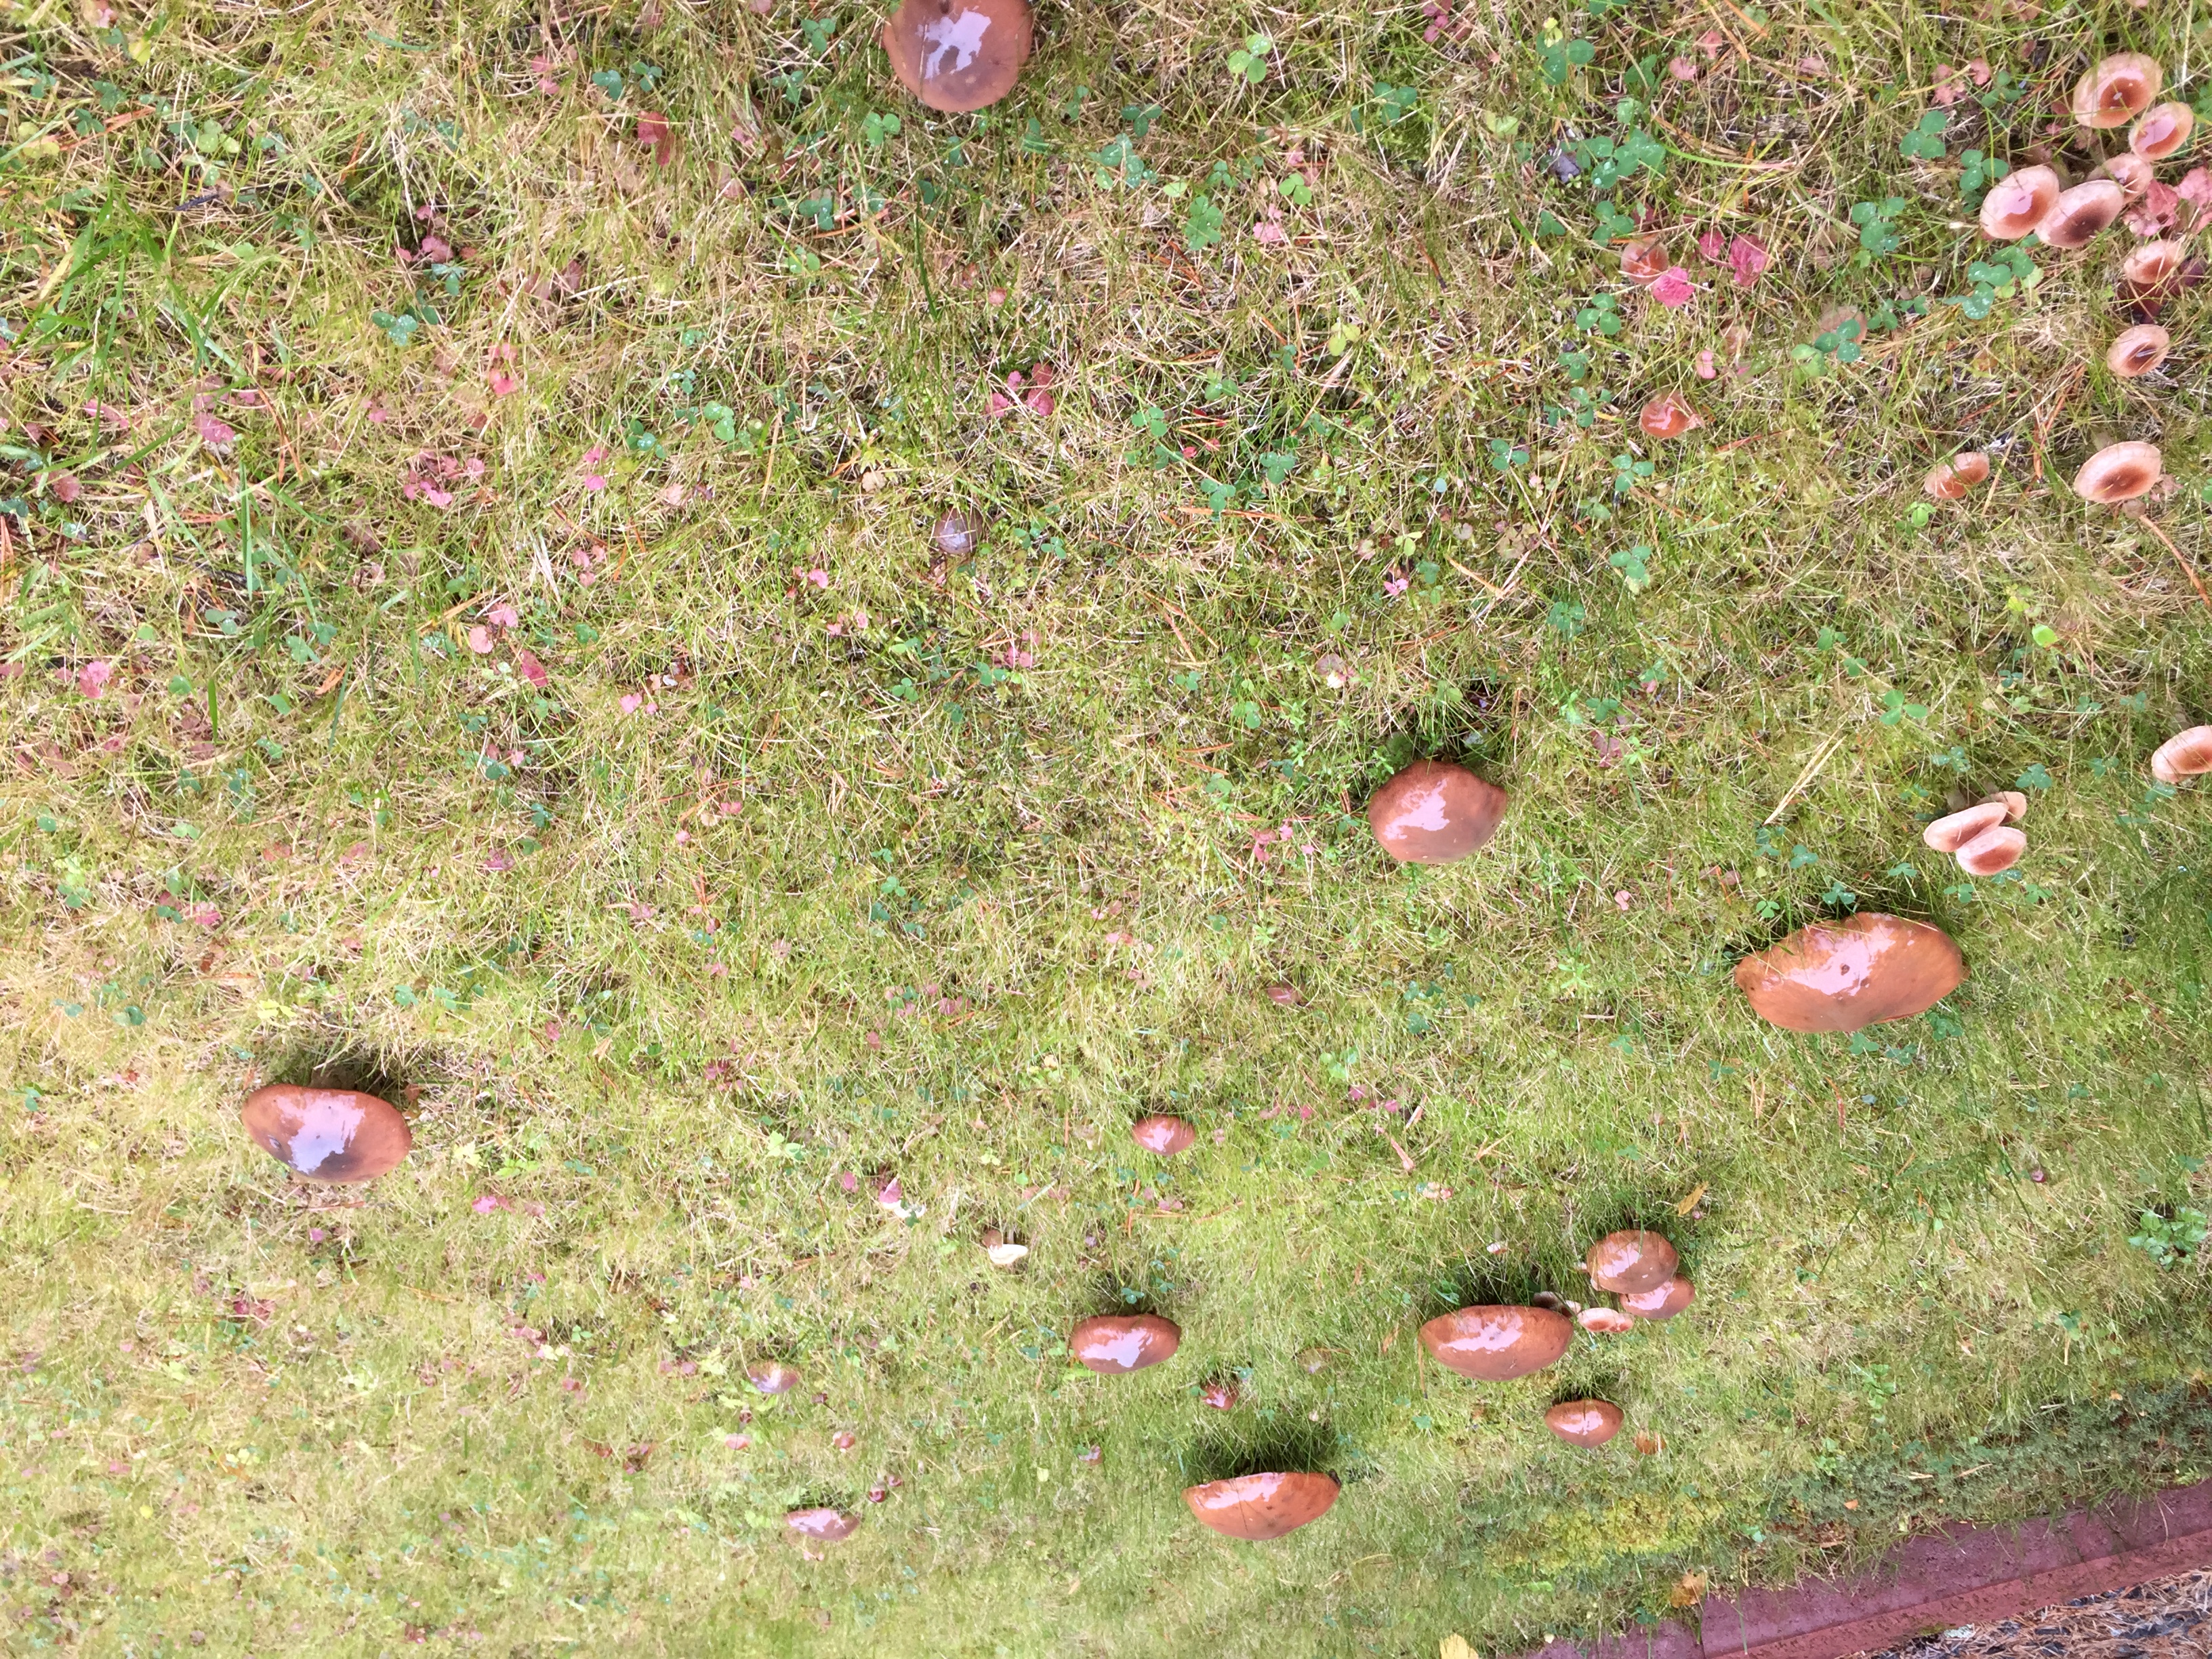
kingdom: Fungi
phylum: Basidiomycota
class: Agaricomycetes
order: Boletales
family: Suillaceae
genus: Suillus
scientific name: Suillus luteus
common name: Slippery jack
